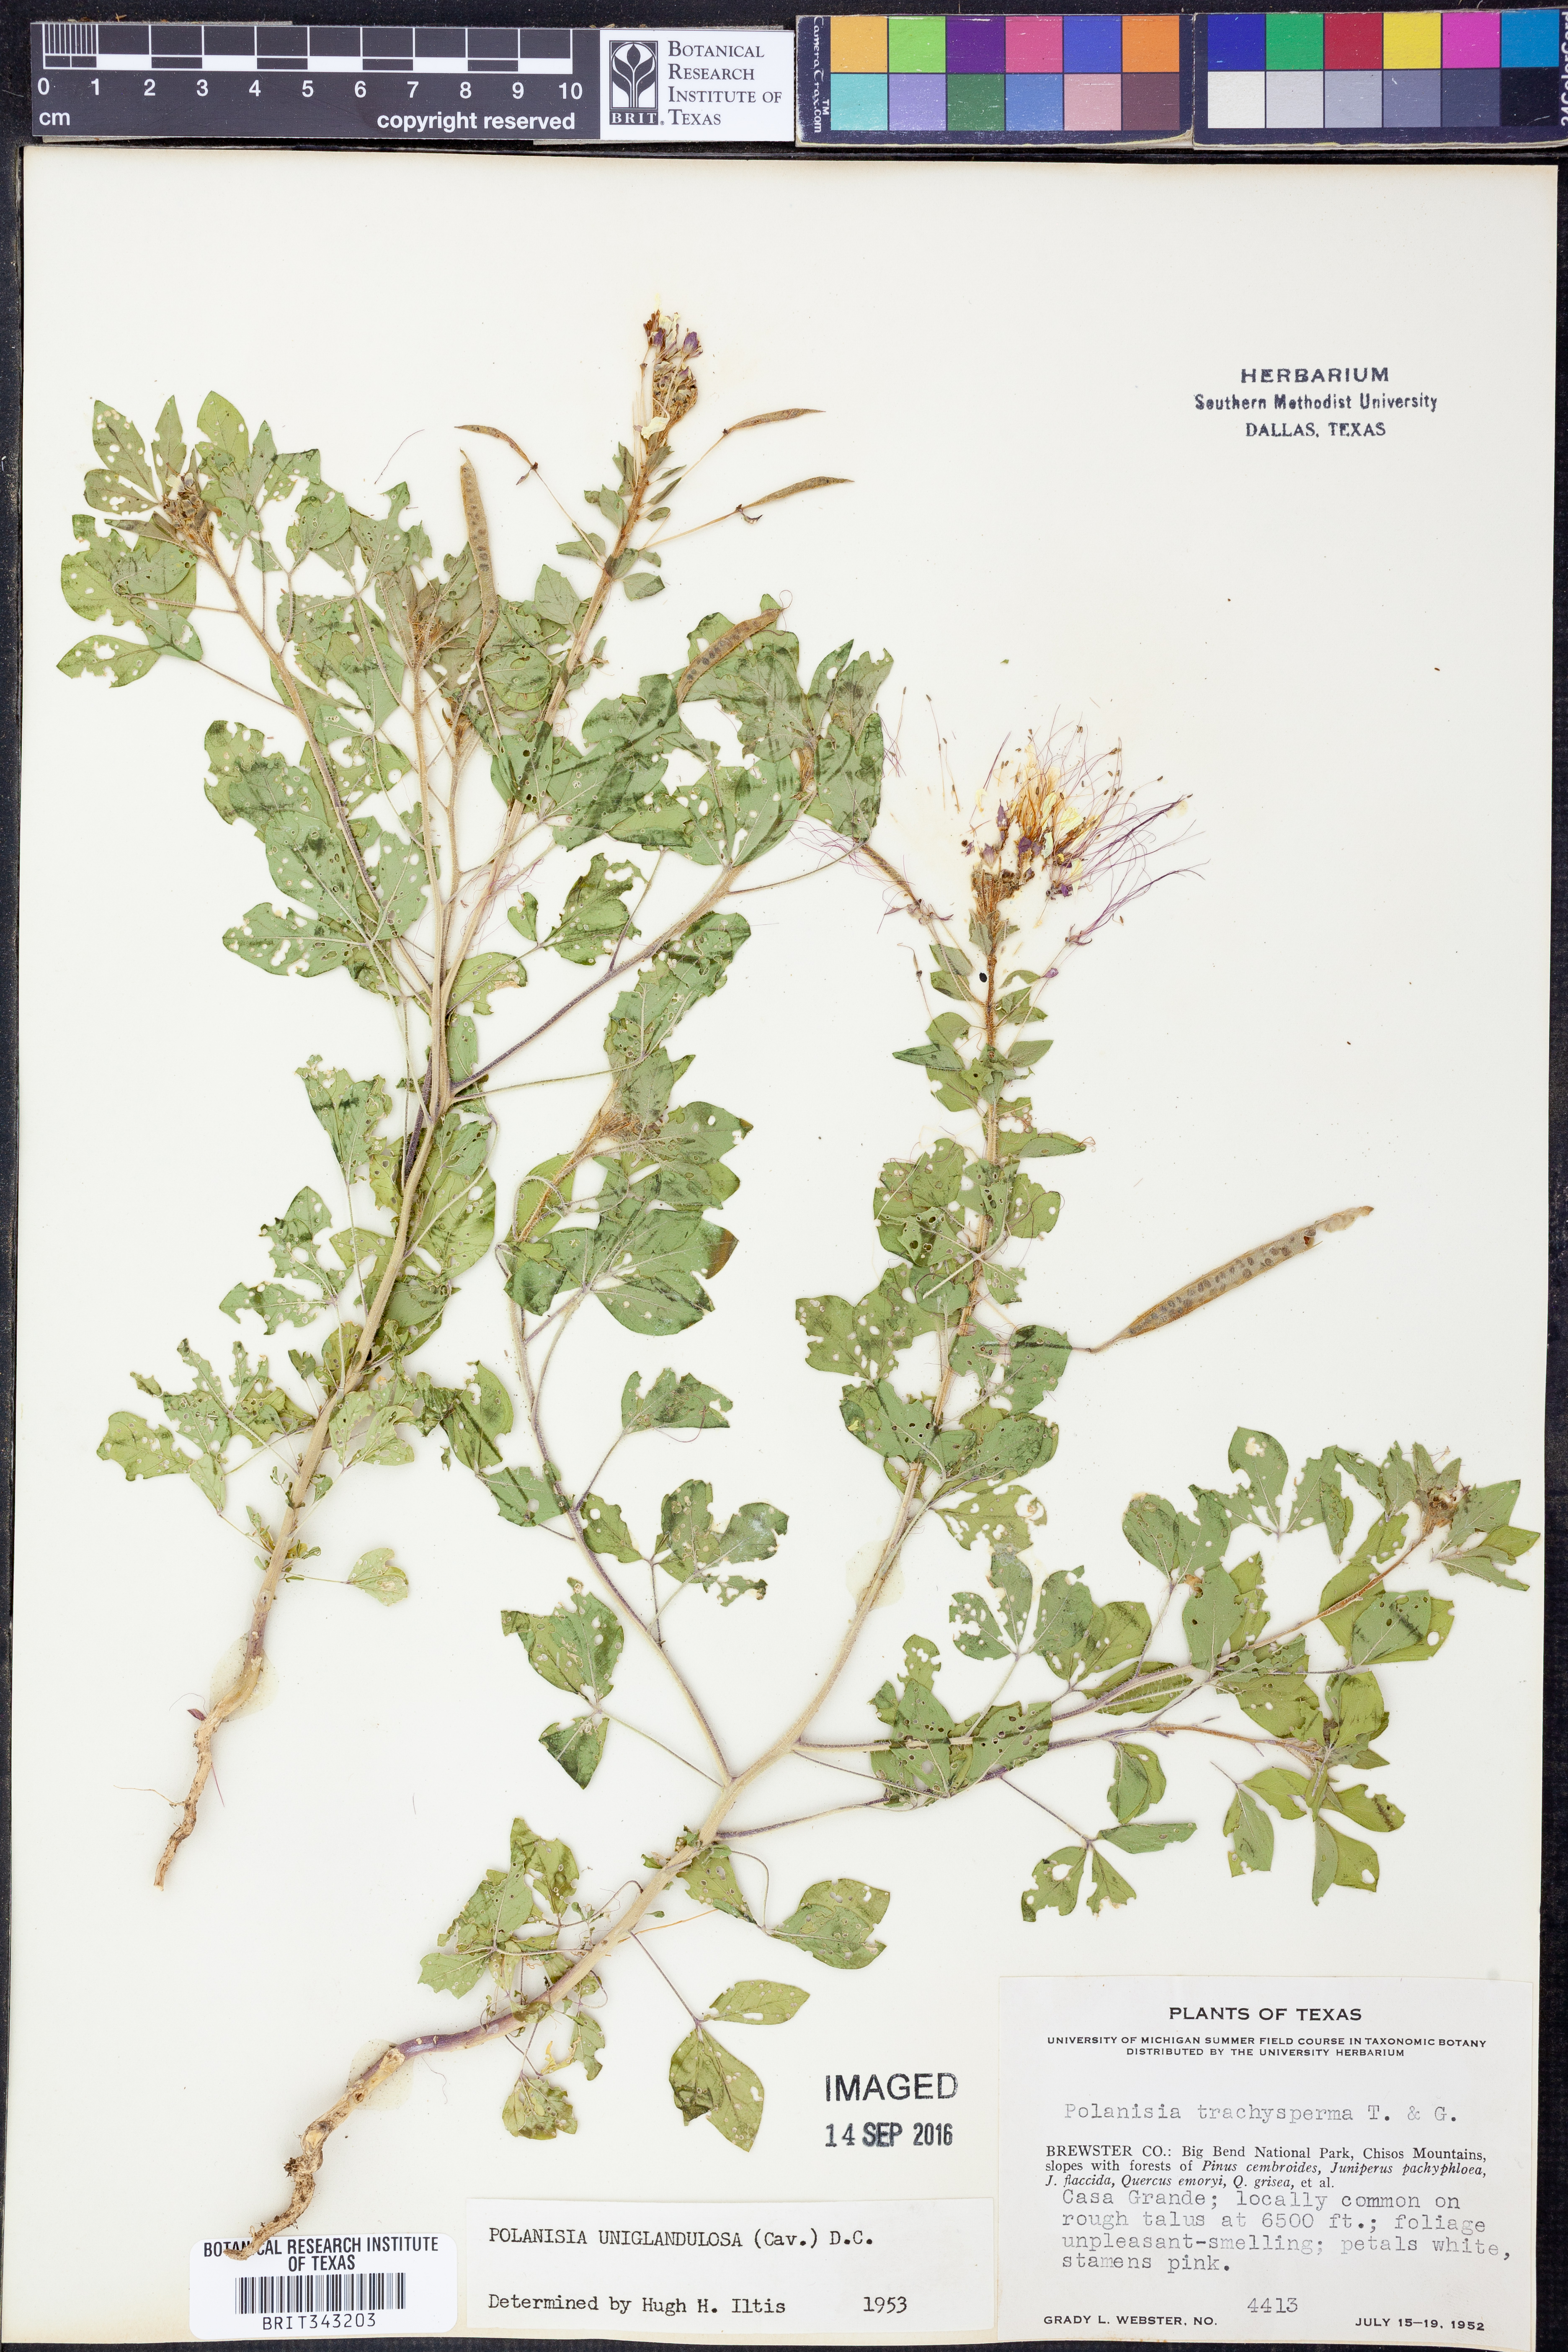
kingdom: Plantae
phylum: Tracheophyta
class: Magnoliopsida
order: Brassicales
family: Cleomaceae
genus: Polanisia
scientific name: Polanisia uniglandulosa
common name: Mexican clammyweed
